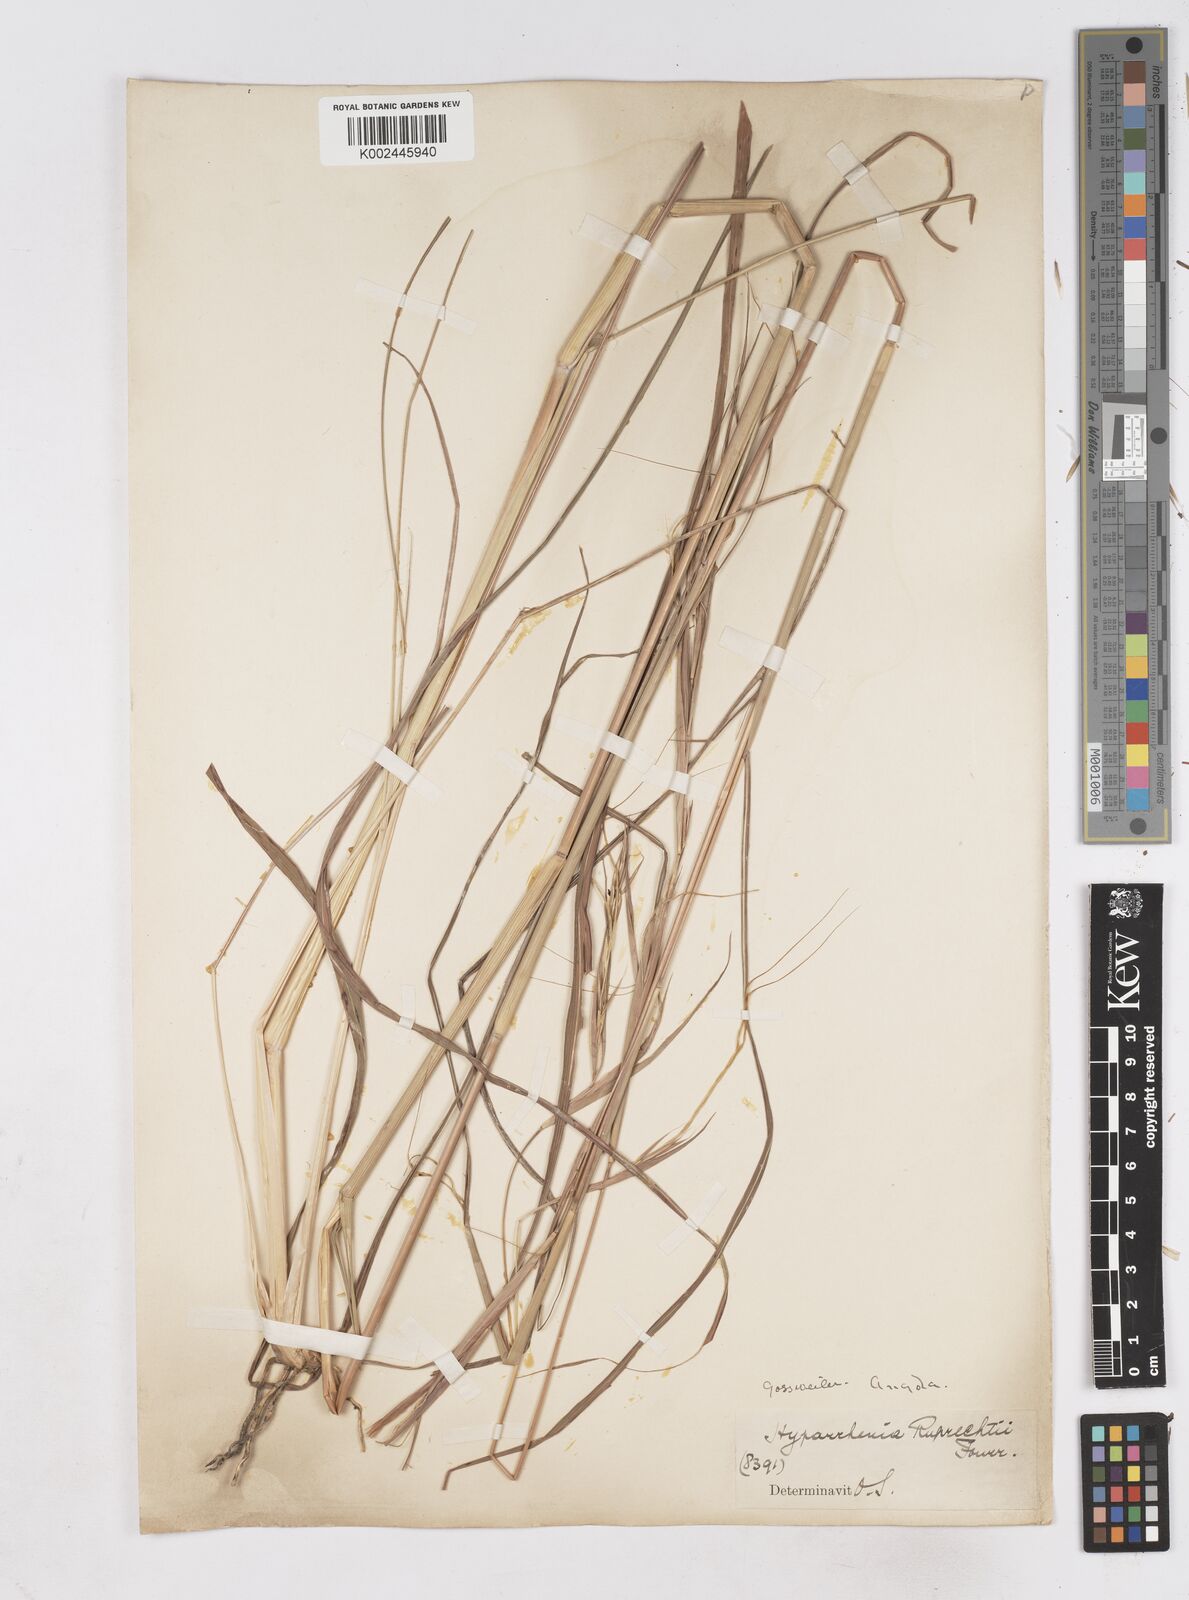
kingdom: Plantae
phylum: Tracheophyta
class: Liliopsida
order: Poales
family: Poaceae
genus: Hyperthelia
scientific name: Hyperthelia dissoluta
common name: Yellow thatching grass
